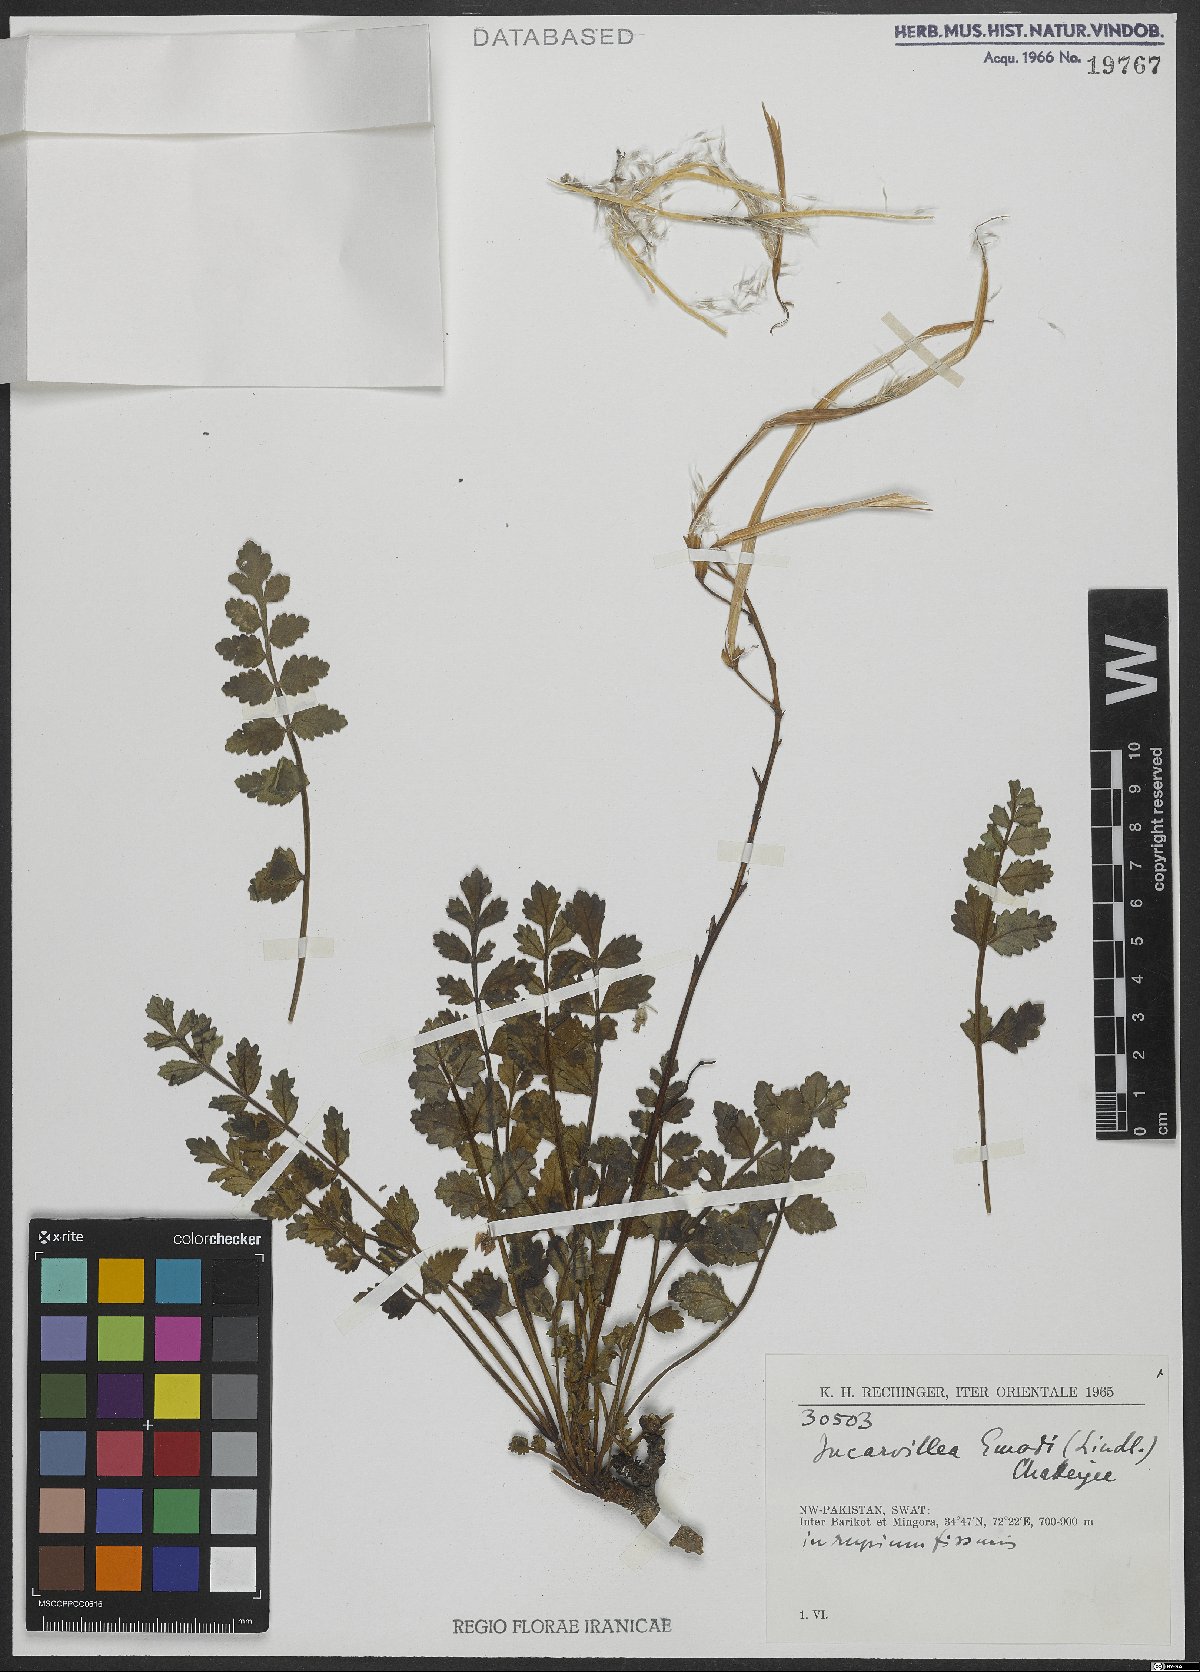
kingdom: Plantae
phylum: Tracheophyta
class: Magnoliopsida
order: Lamiales
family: Bignoniaceae
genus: Incarvillea
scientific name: Incarvillea emodi
